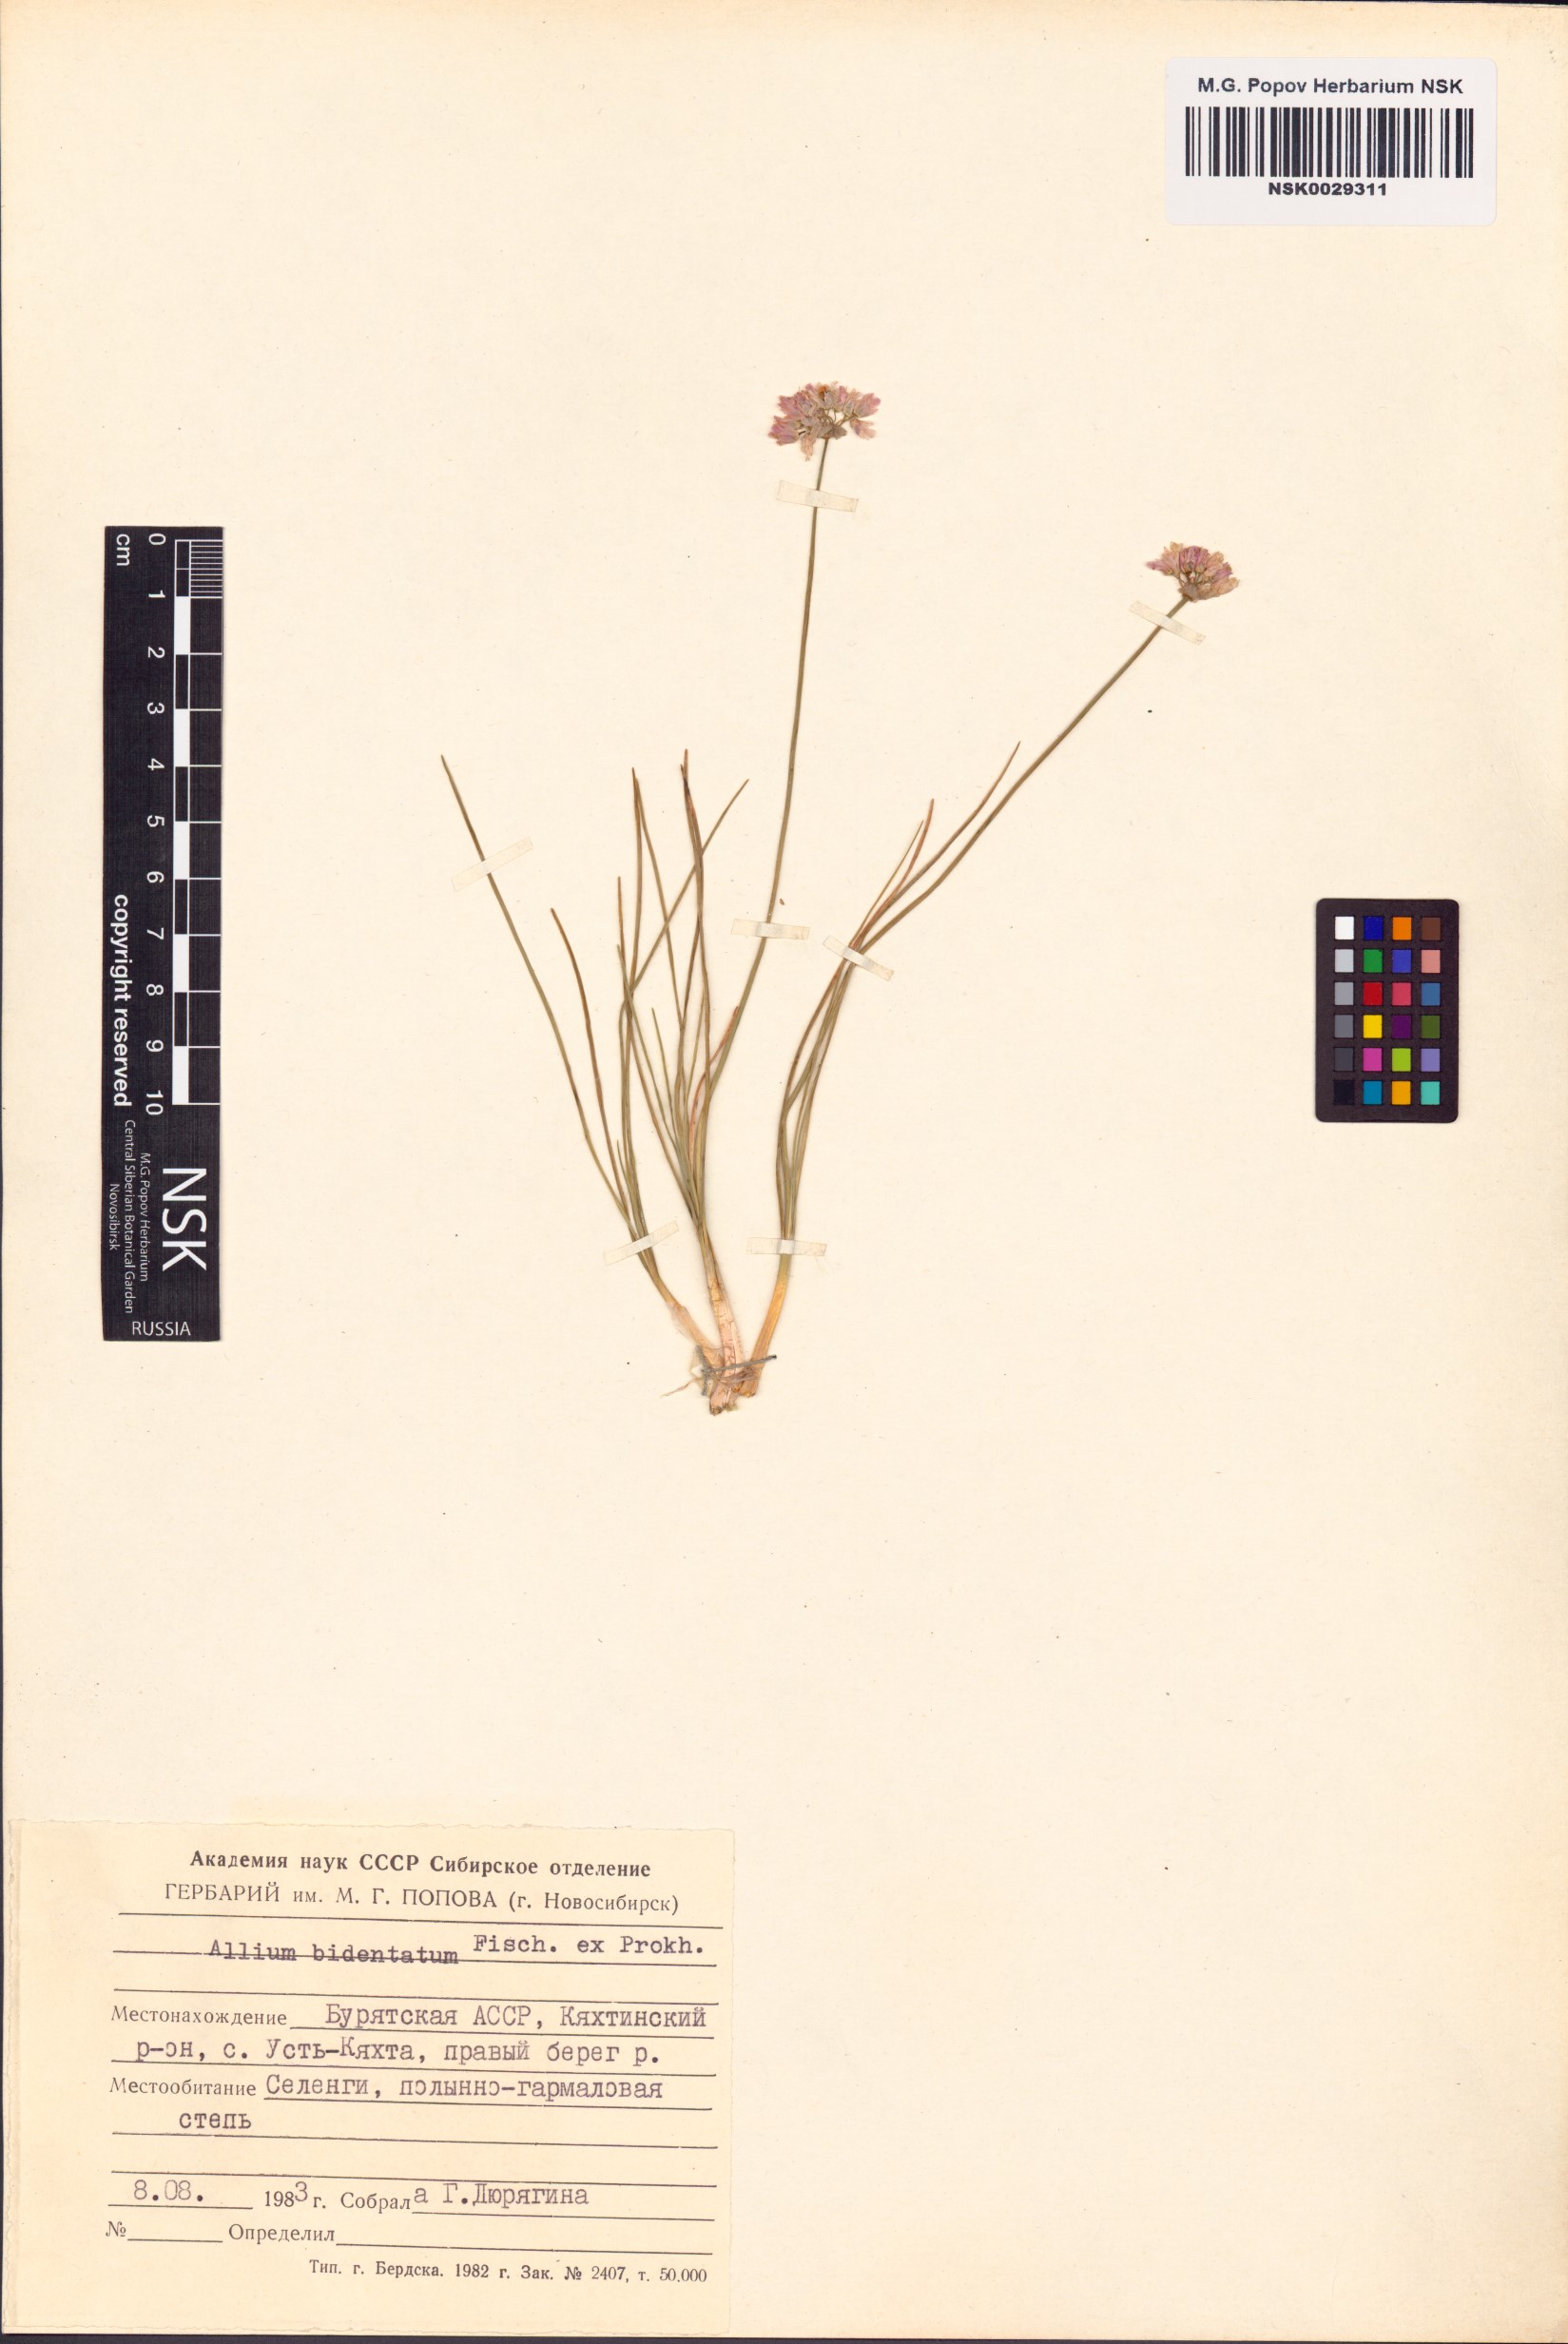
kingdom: Plantae
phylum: Tracheophyta
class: Liliopsida
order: Asparagales
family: Amaryllidaceae
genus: Allium
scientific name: Allium bidentatum
